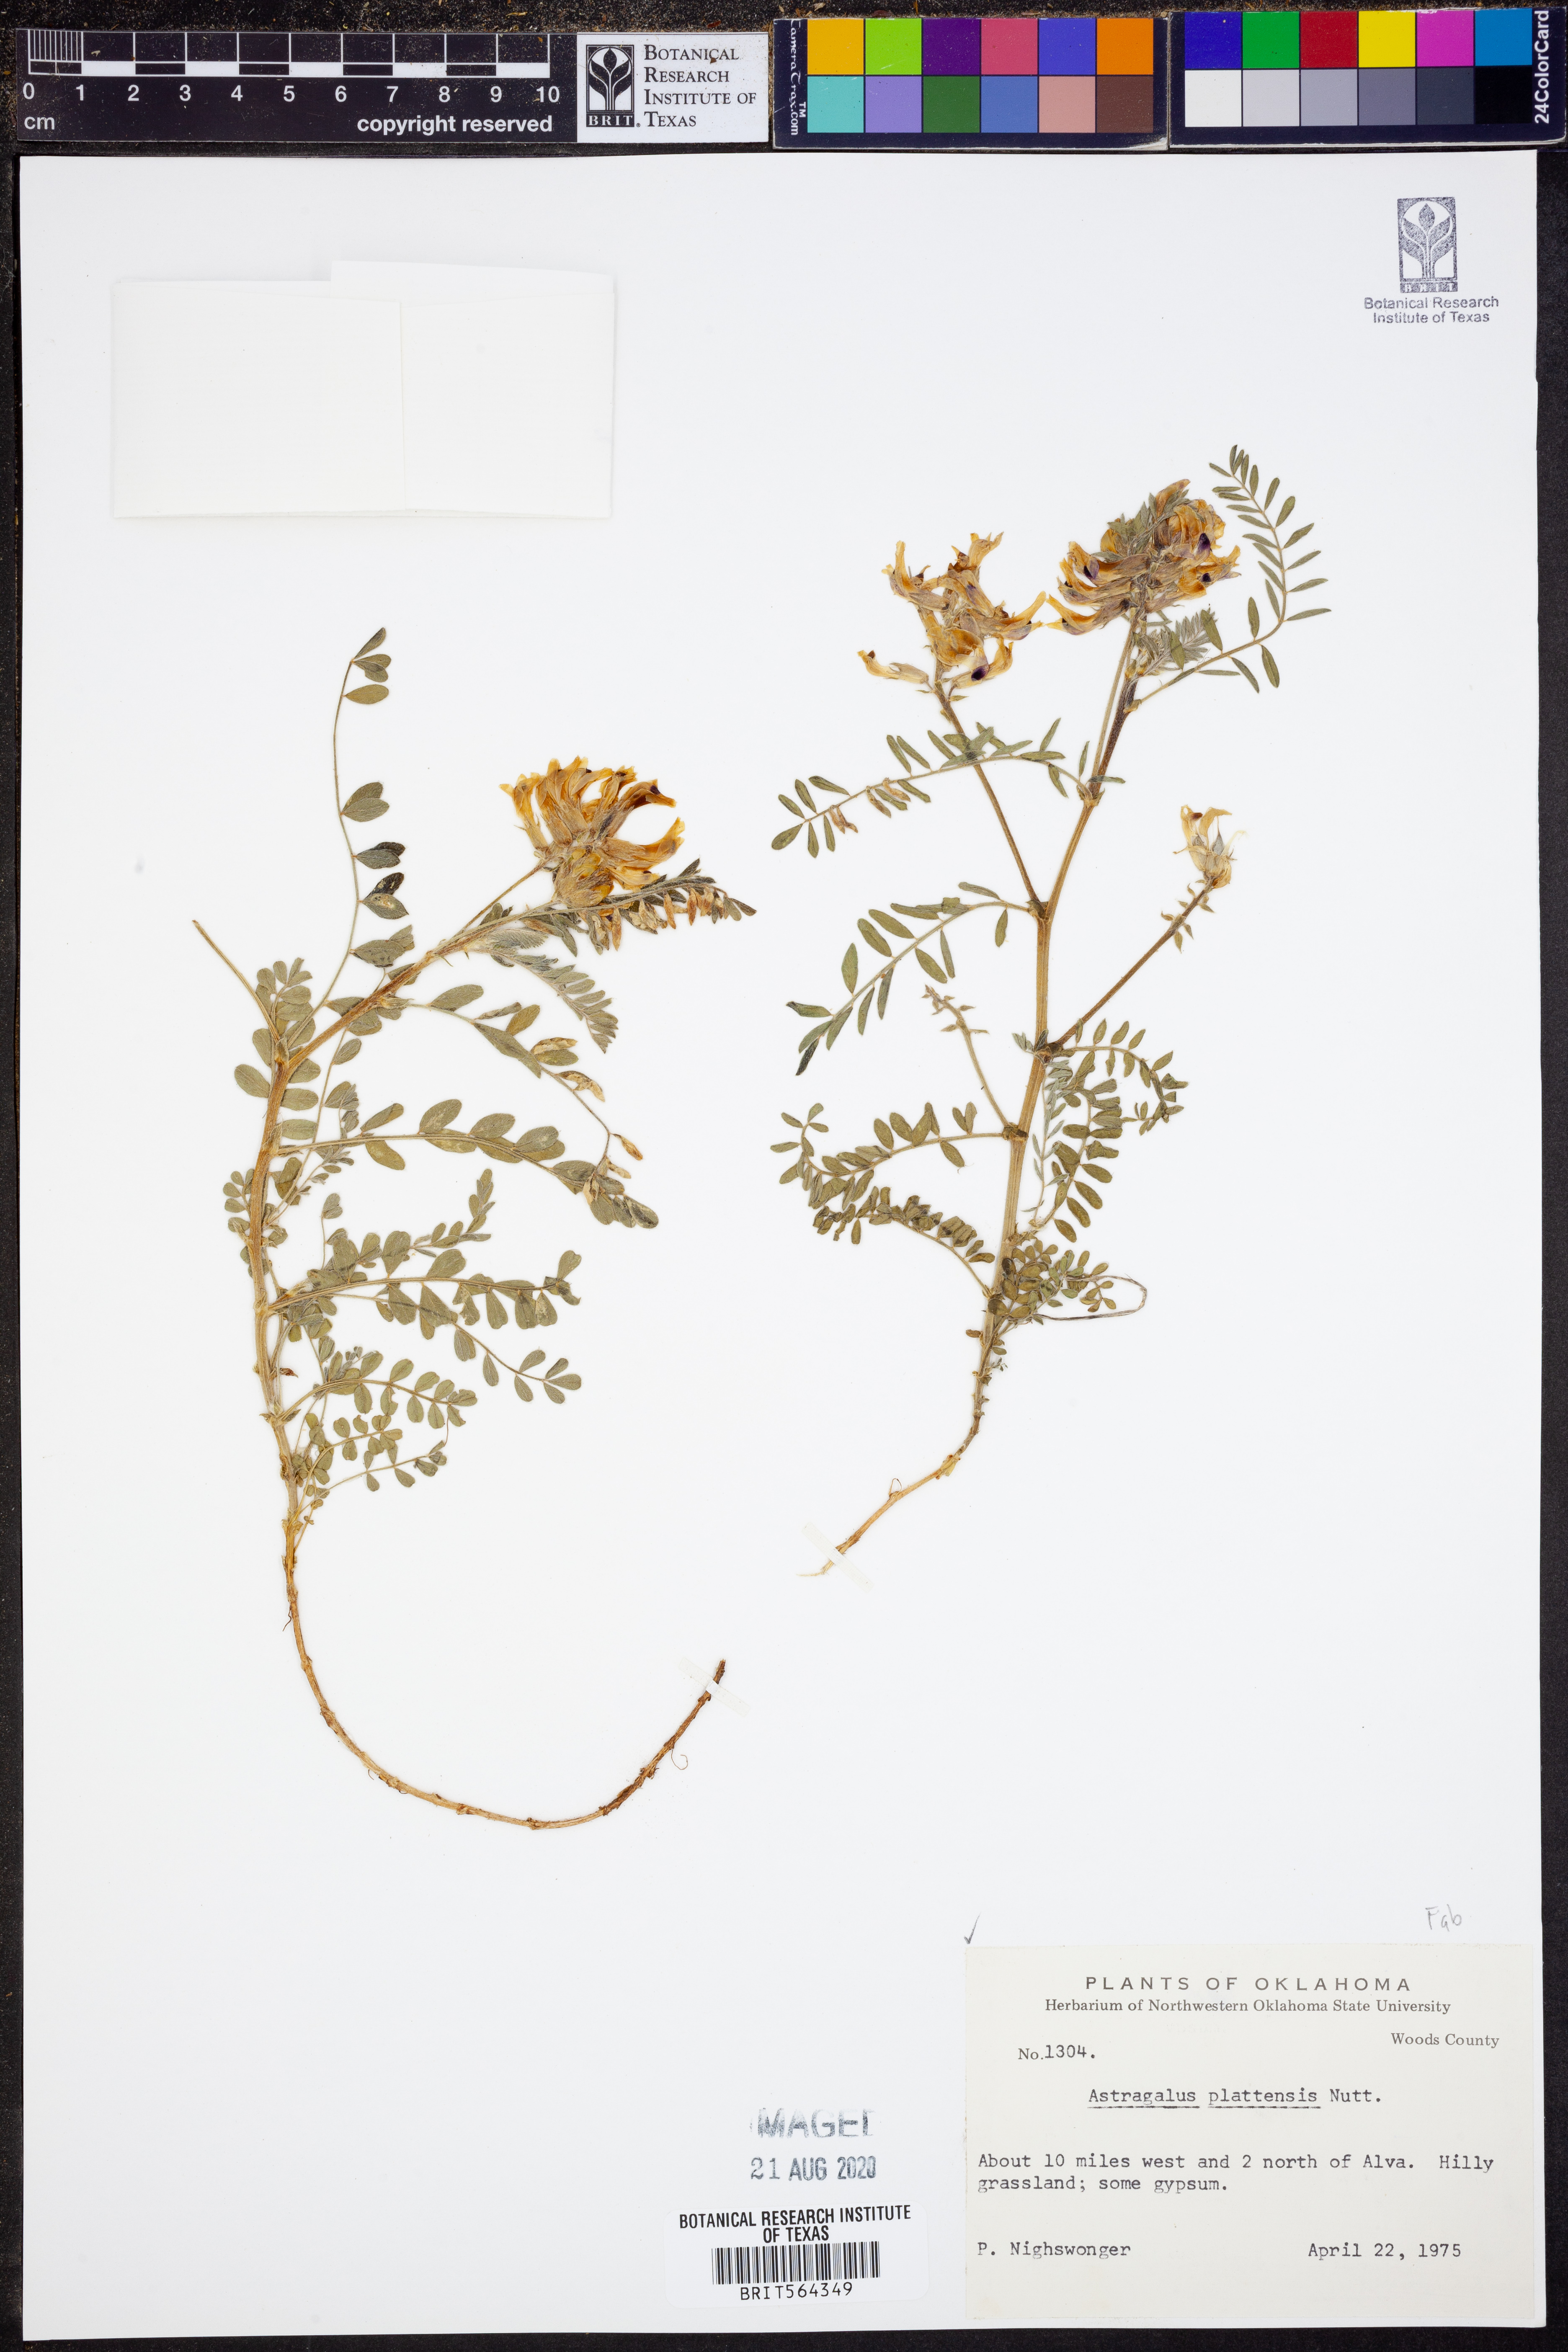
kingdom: Plantae
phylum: Tracheophyta
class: Magnoliopsida
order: Fabales
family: Fabaceae
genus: Astragalus
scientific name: Astragalus plattensis
